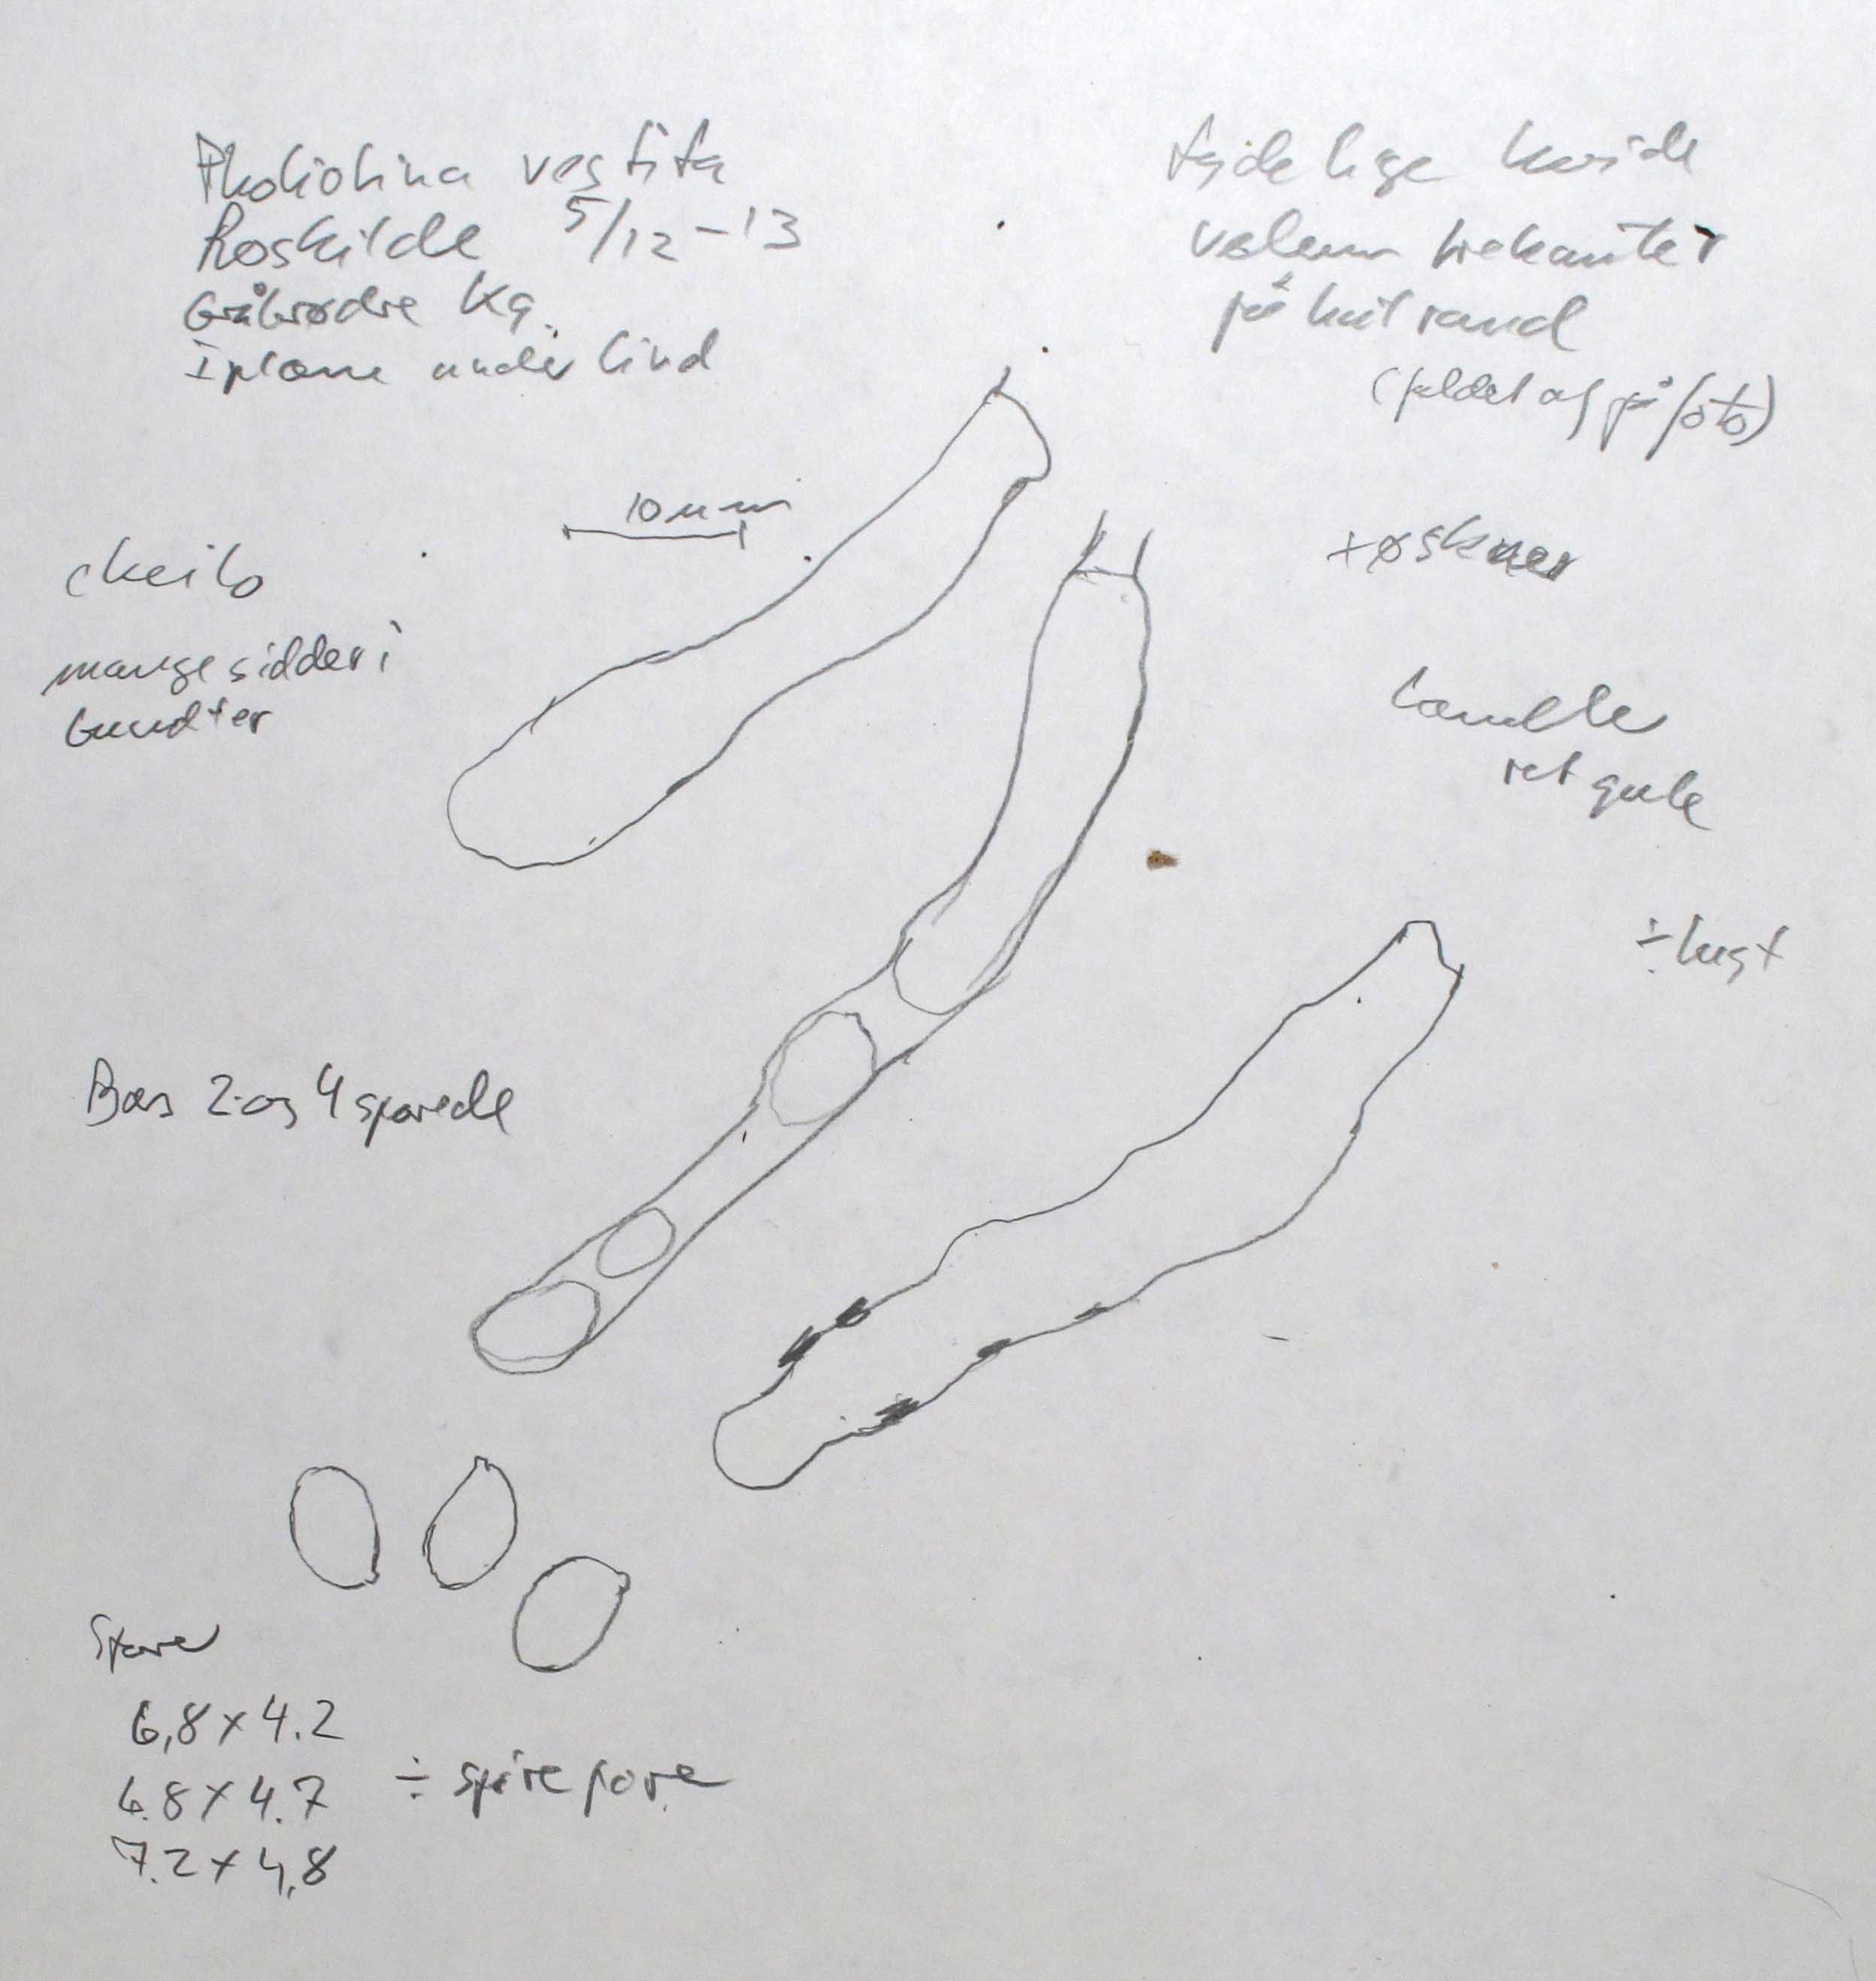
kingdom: Fungi
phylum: Basidiomycota
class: Agaricomycetes
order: Agaricales
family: Bolbitiaceae
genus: Conocybe
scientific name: Conocybe vestita
